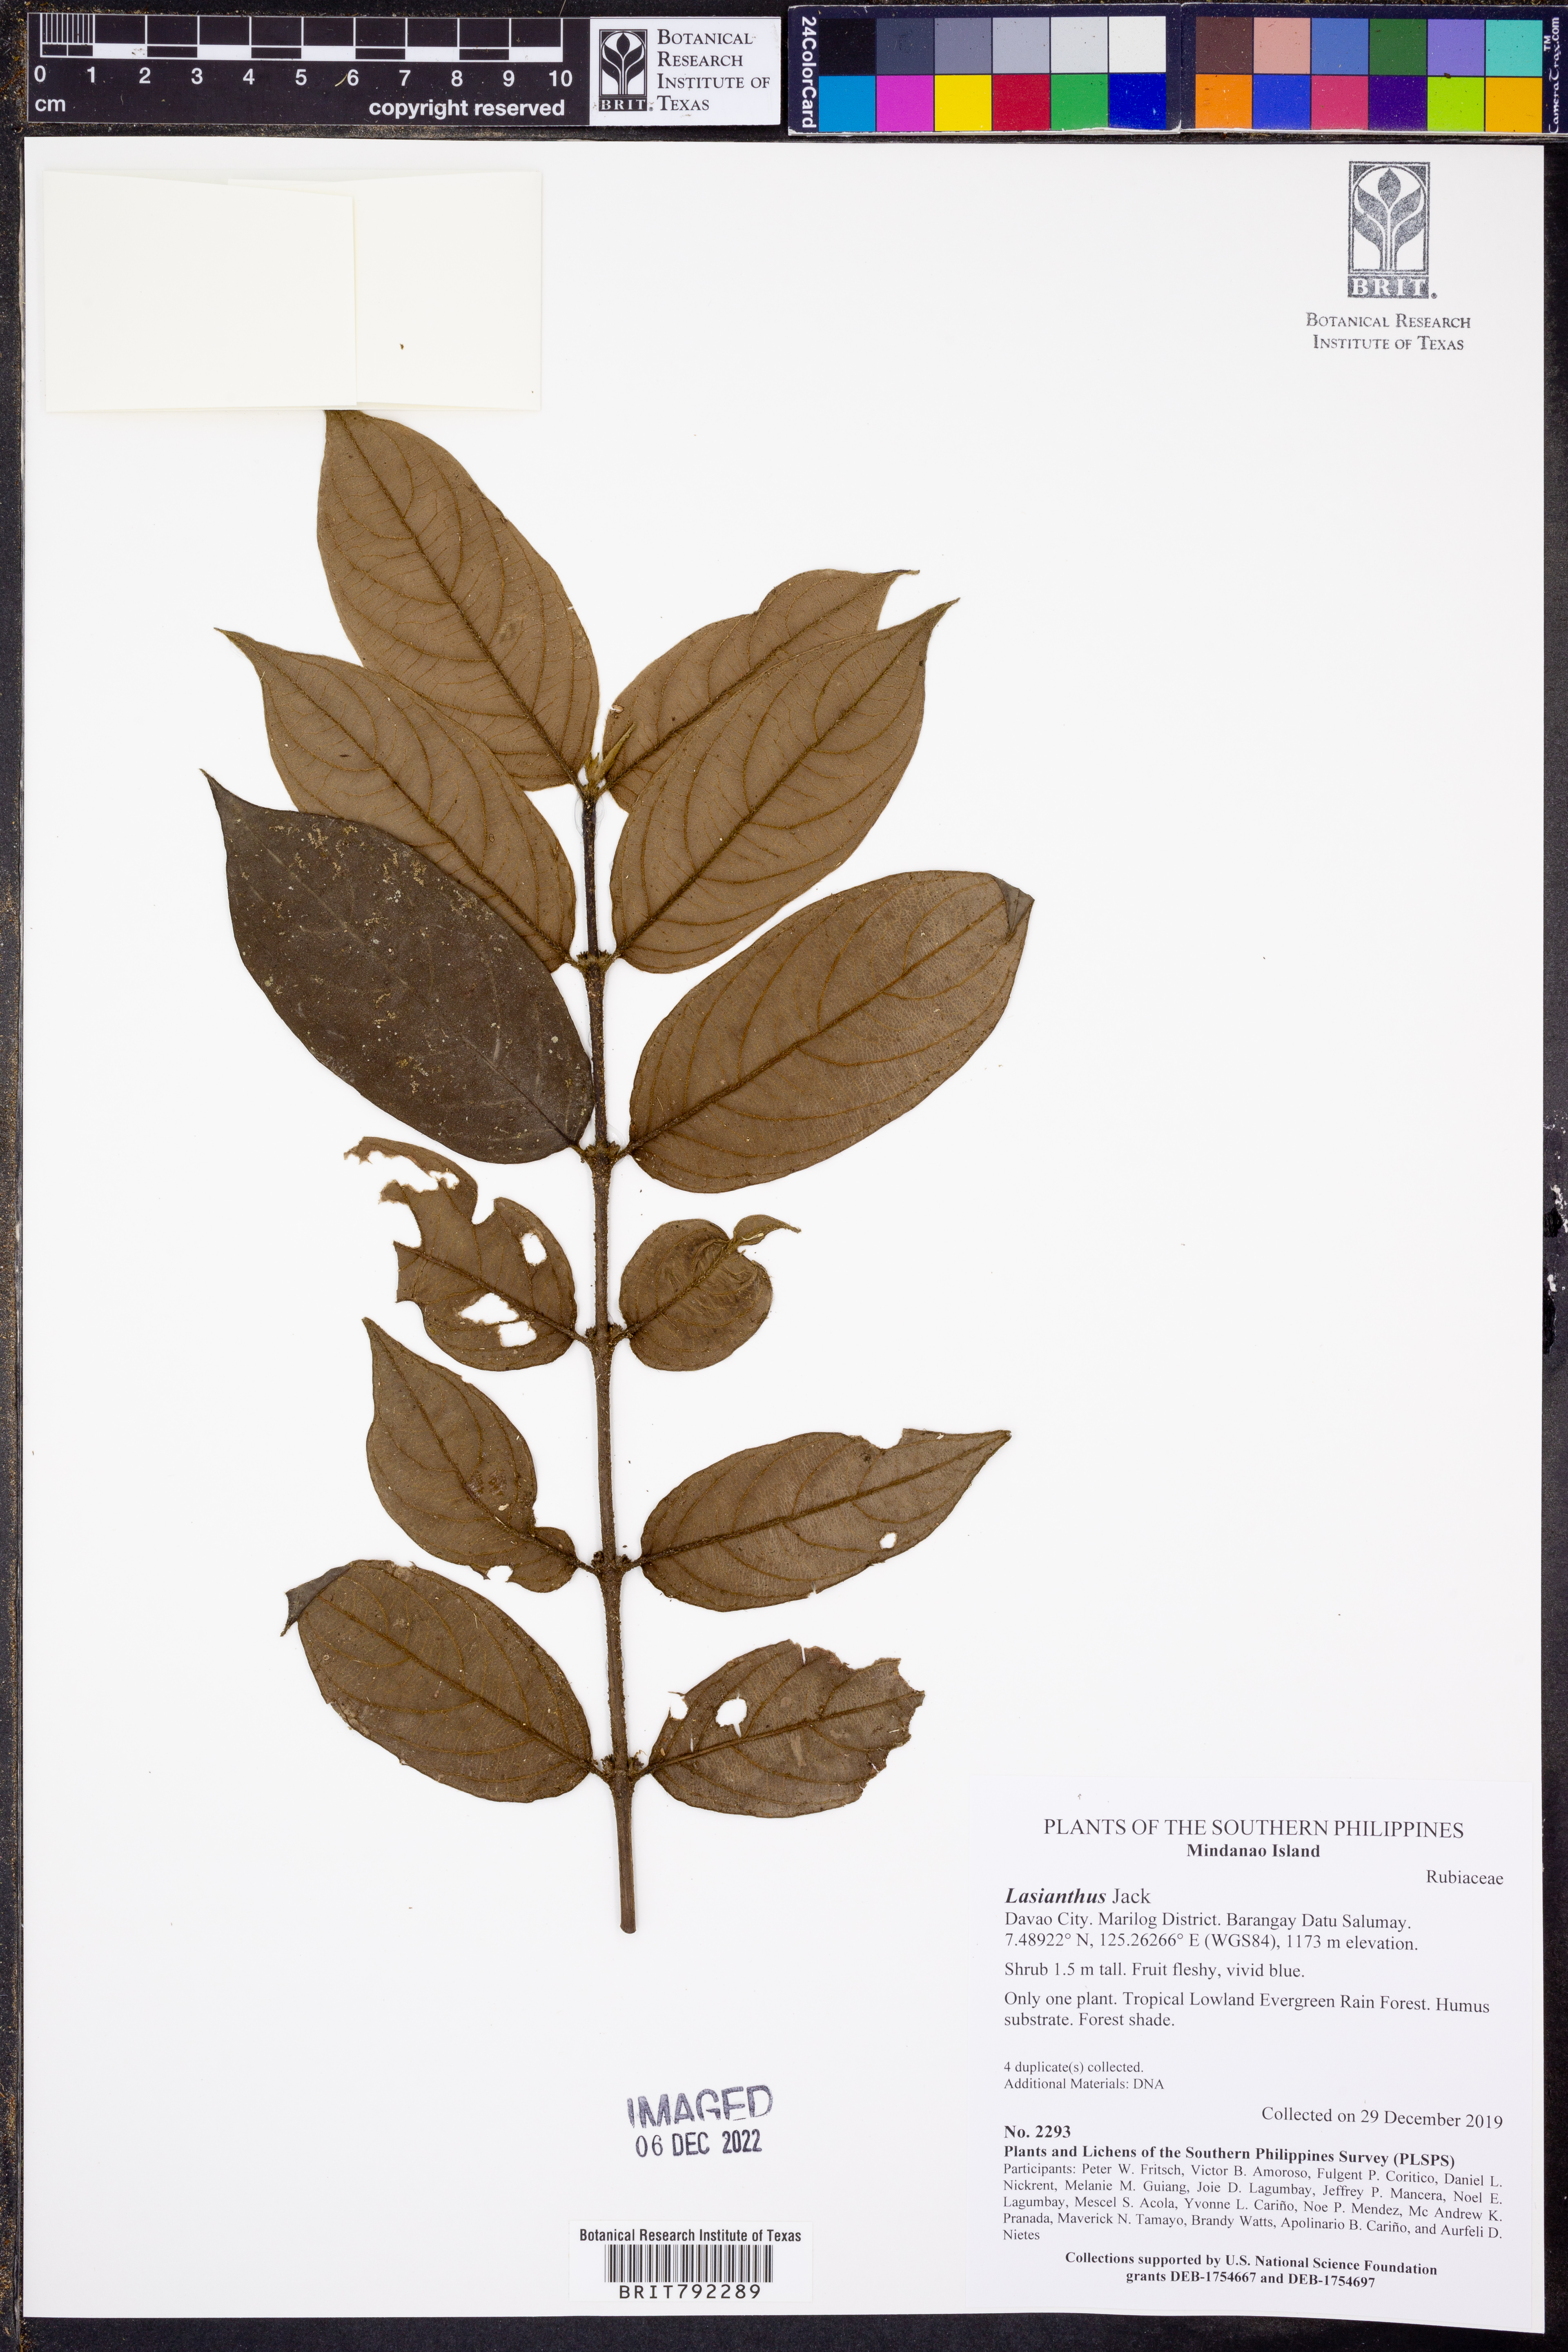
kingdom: Plantae
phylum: Tracheophyta
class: Magnoliopsida
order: Gentianales
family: Rubiaceae
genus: Lasianthus
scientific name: Lasianthus
